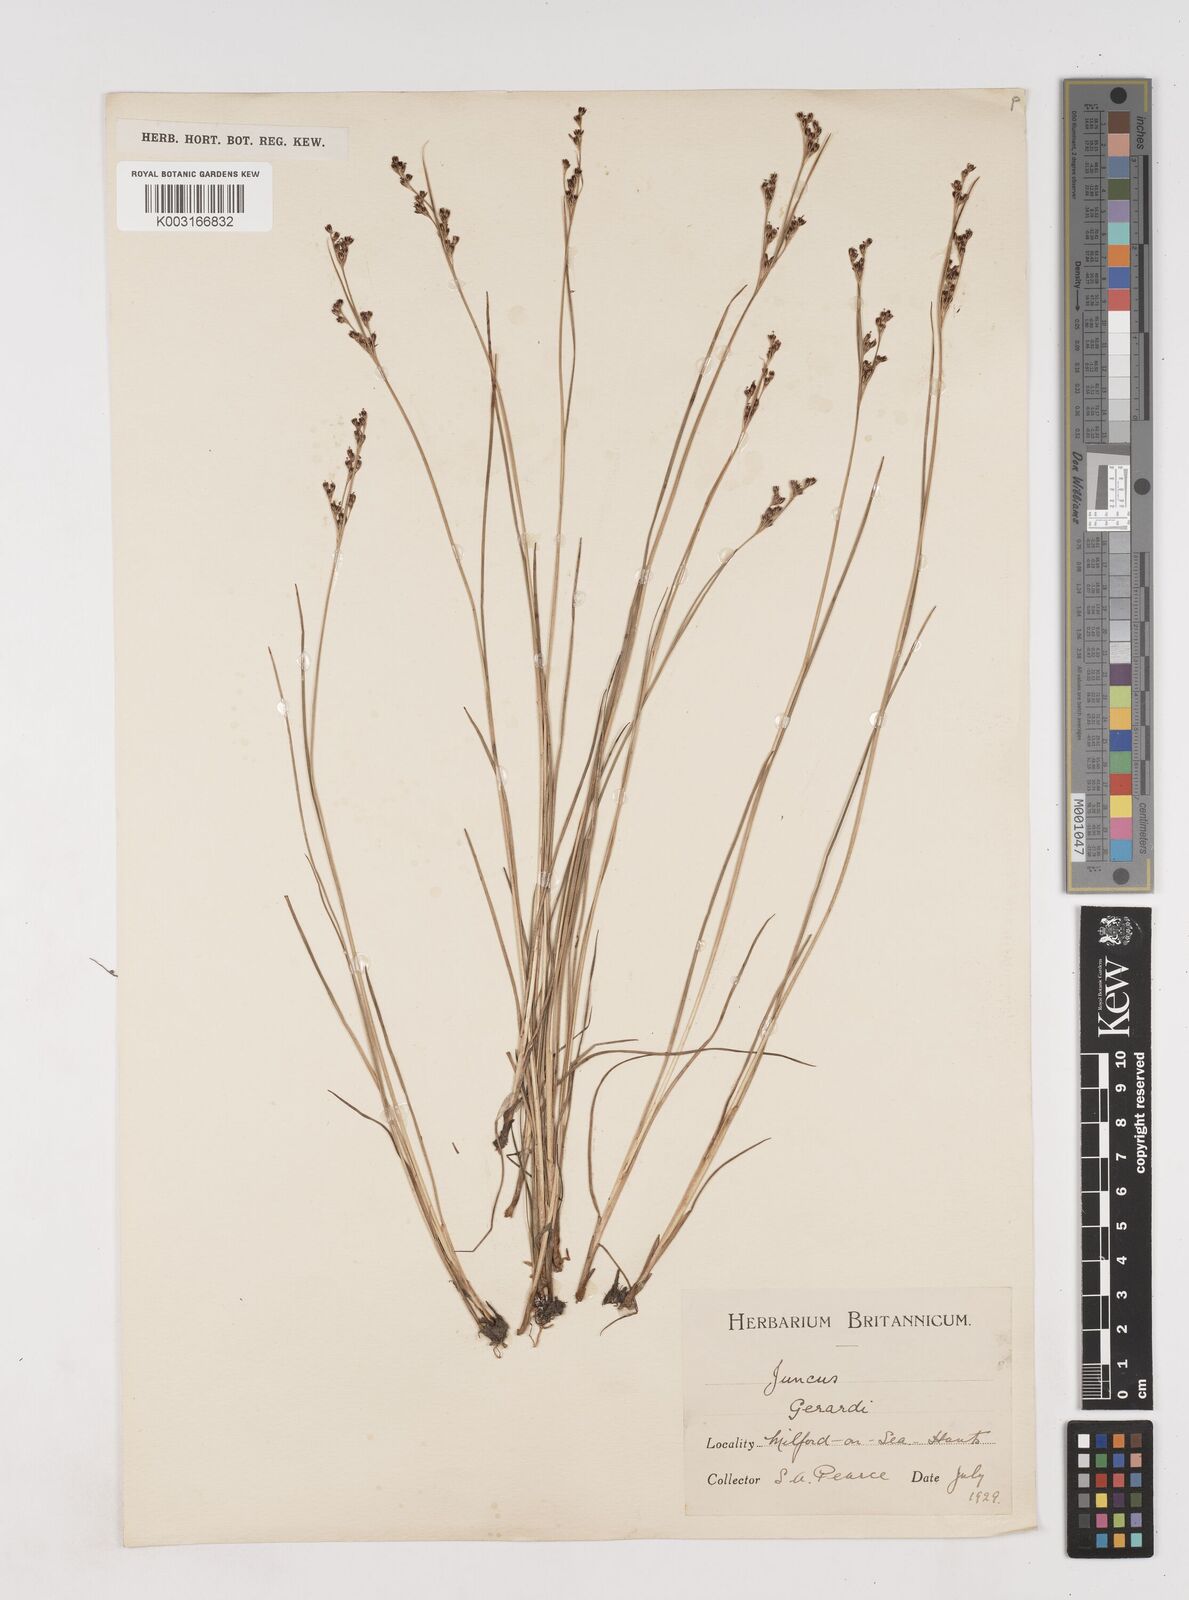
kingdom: Plantae
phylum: Tracheophyta
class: Liliopsida
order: Poales
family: Juncaceae
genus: Juncus
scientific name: Juncus gerardi
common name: Saltmarsh rush
